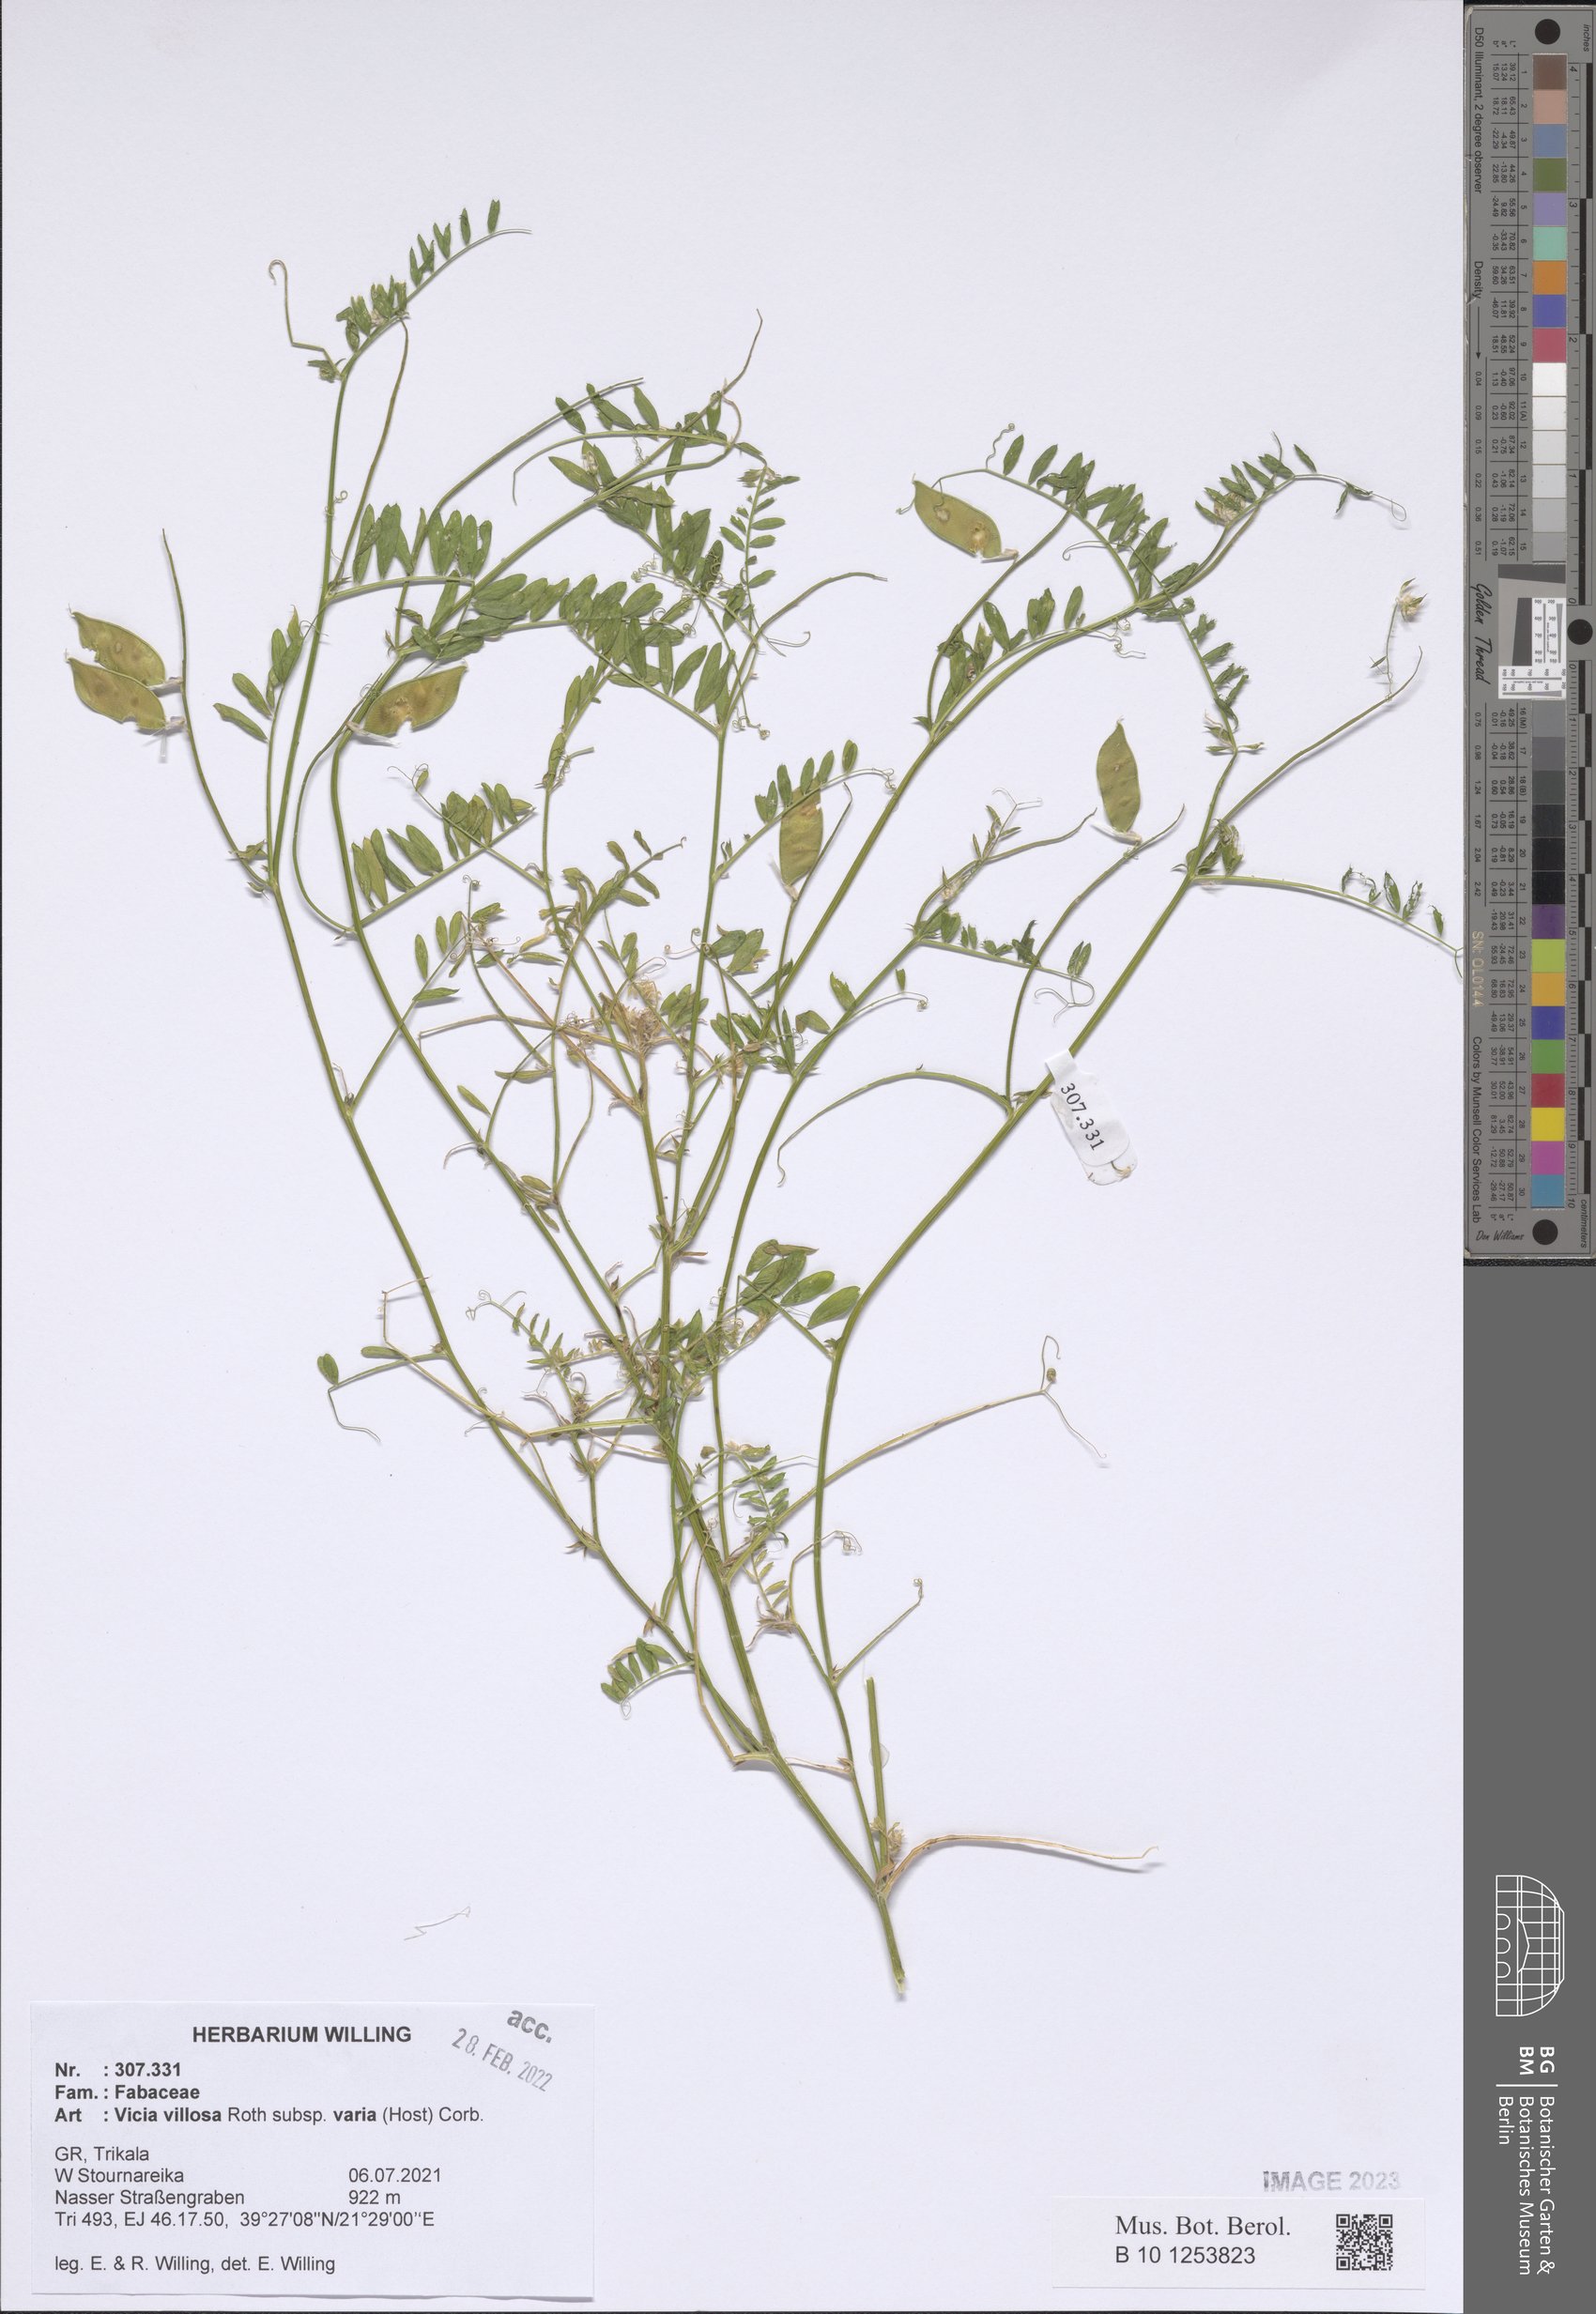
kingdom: Plantae
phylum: Tracheophyta
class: Magnoliopsida
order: Fabales
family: Fabaceae
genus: Vicia
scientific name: Vicia villosa
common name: Fodder vetch
